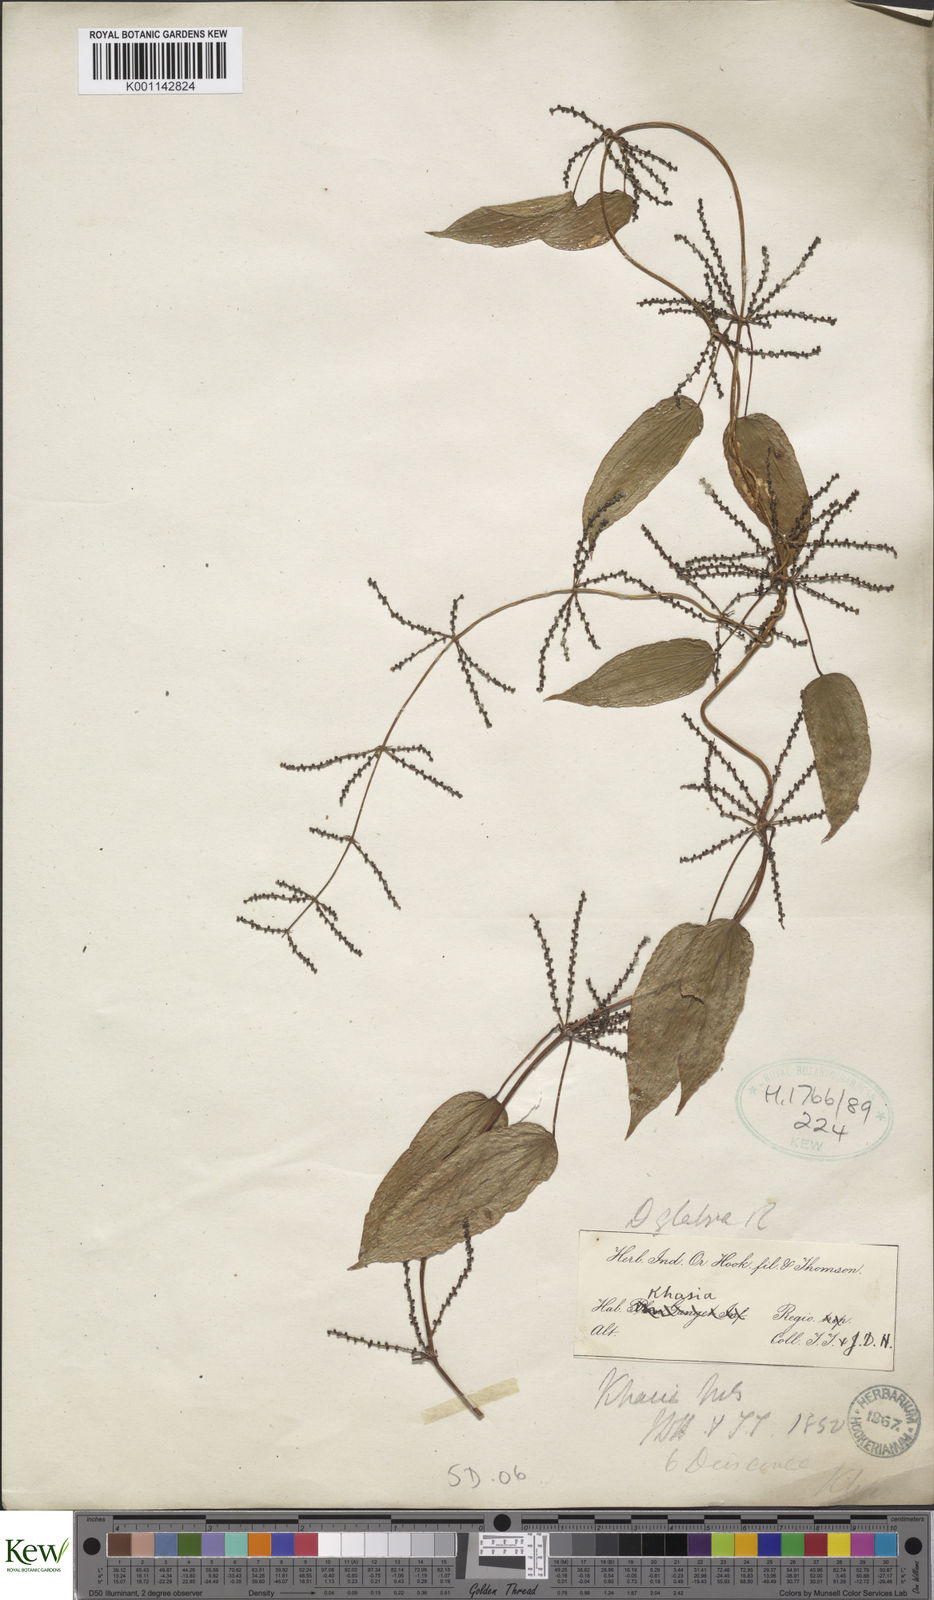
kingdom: Plantae
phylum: Tracheophyta
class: Liliopsida
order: Dioscoreales
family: Dioscoreaceae
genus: Dioscorea
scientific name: Dioscorea glabra
